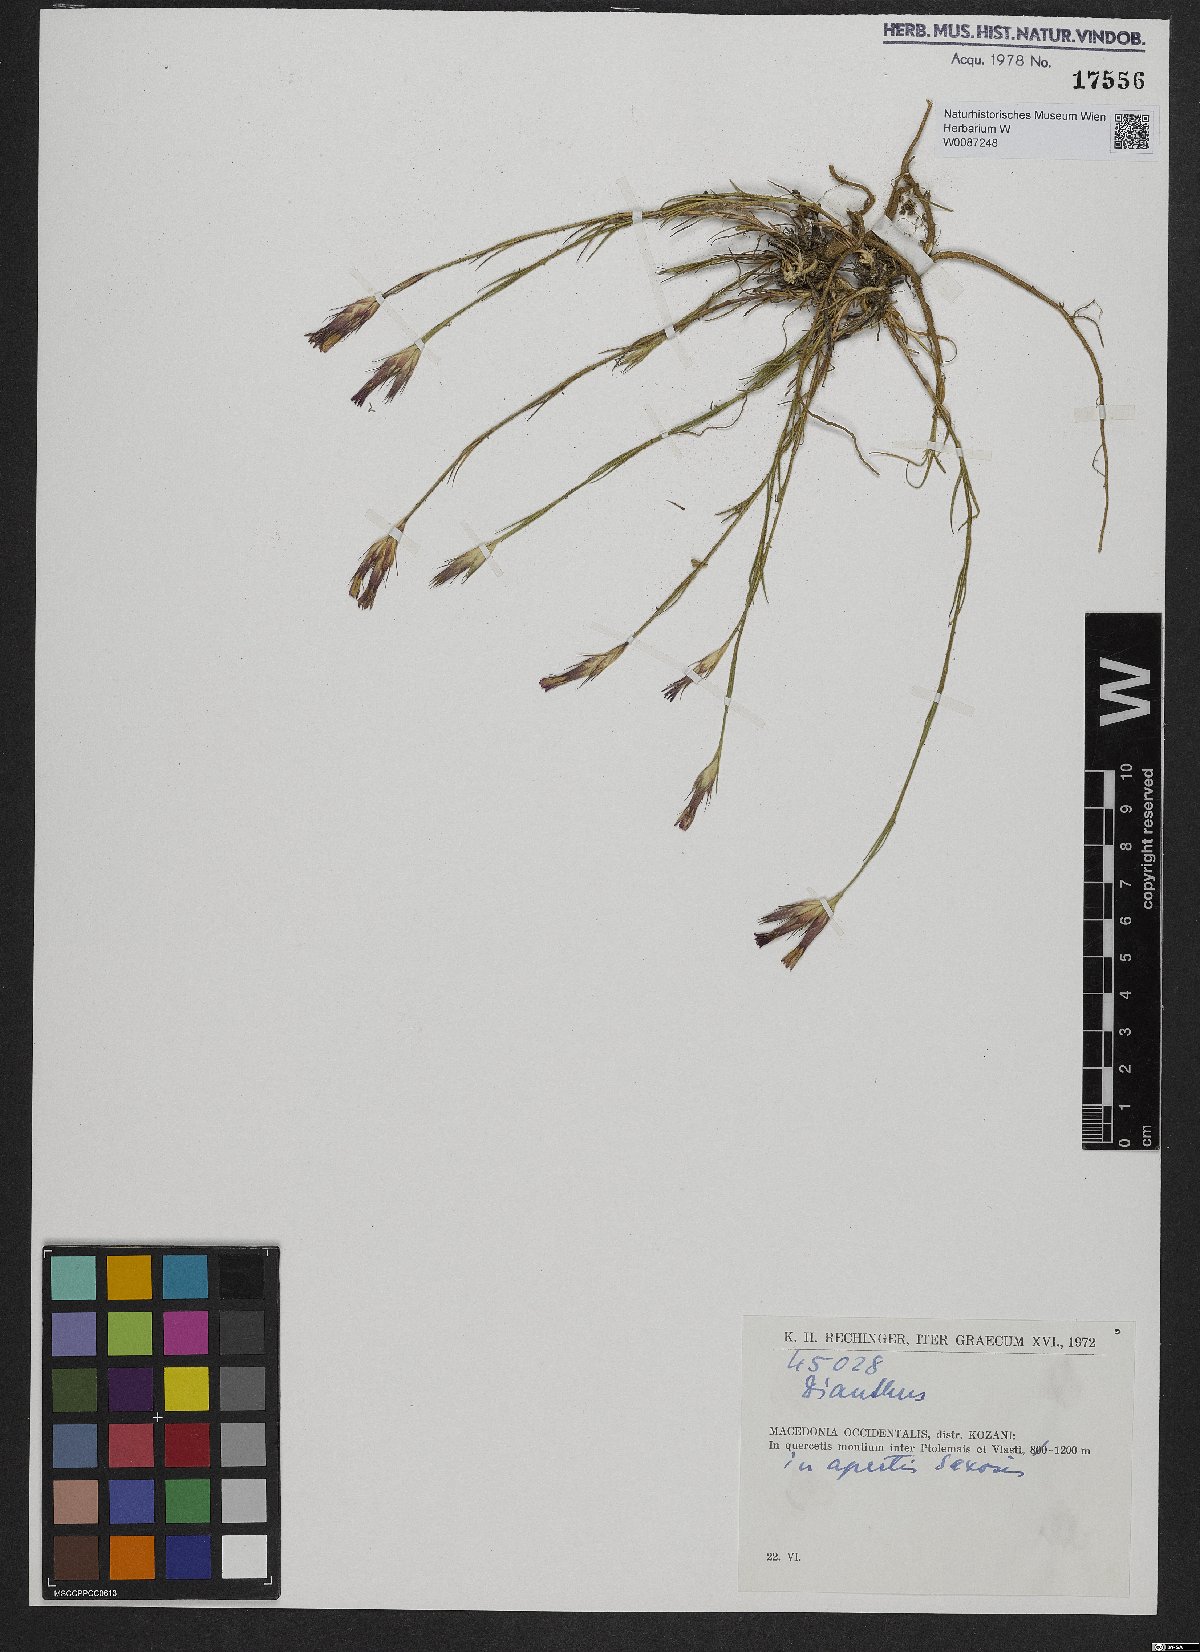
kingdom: Plantae
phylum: Tracheophyta
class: Magnoliopsida
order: Caryophyllales
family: Caryophyllaceae
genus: Dianthus
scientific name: Dianthus
